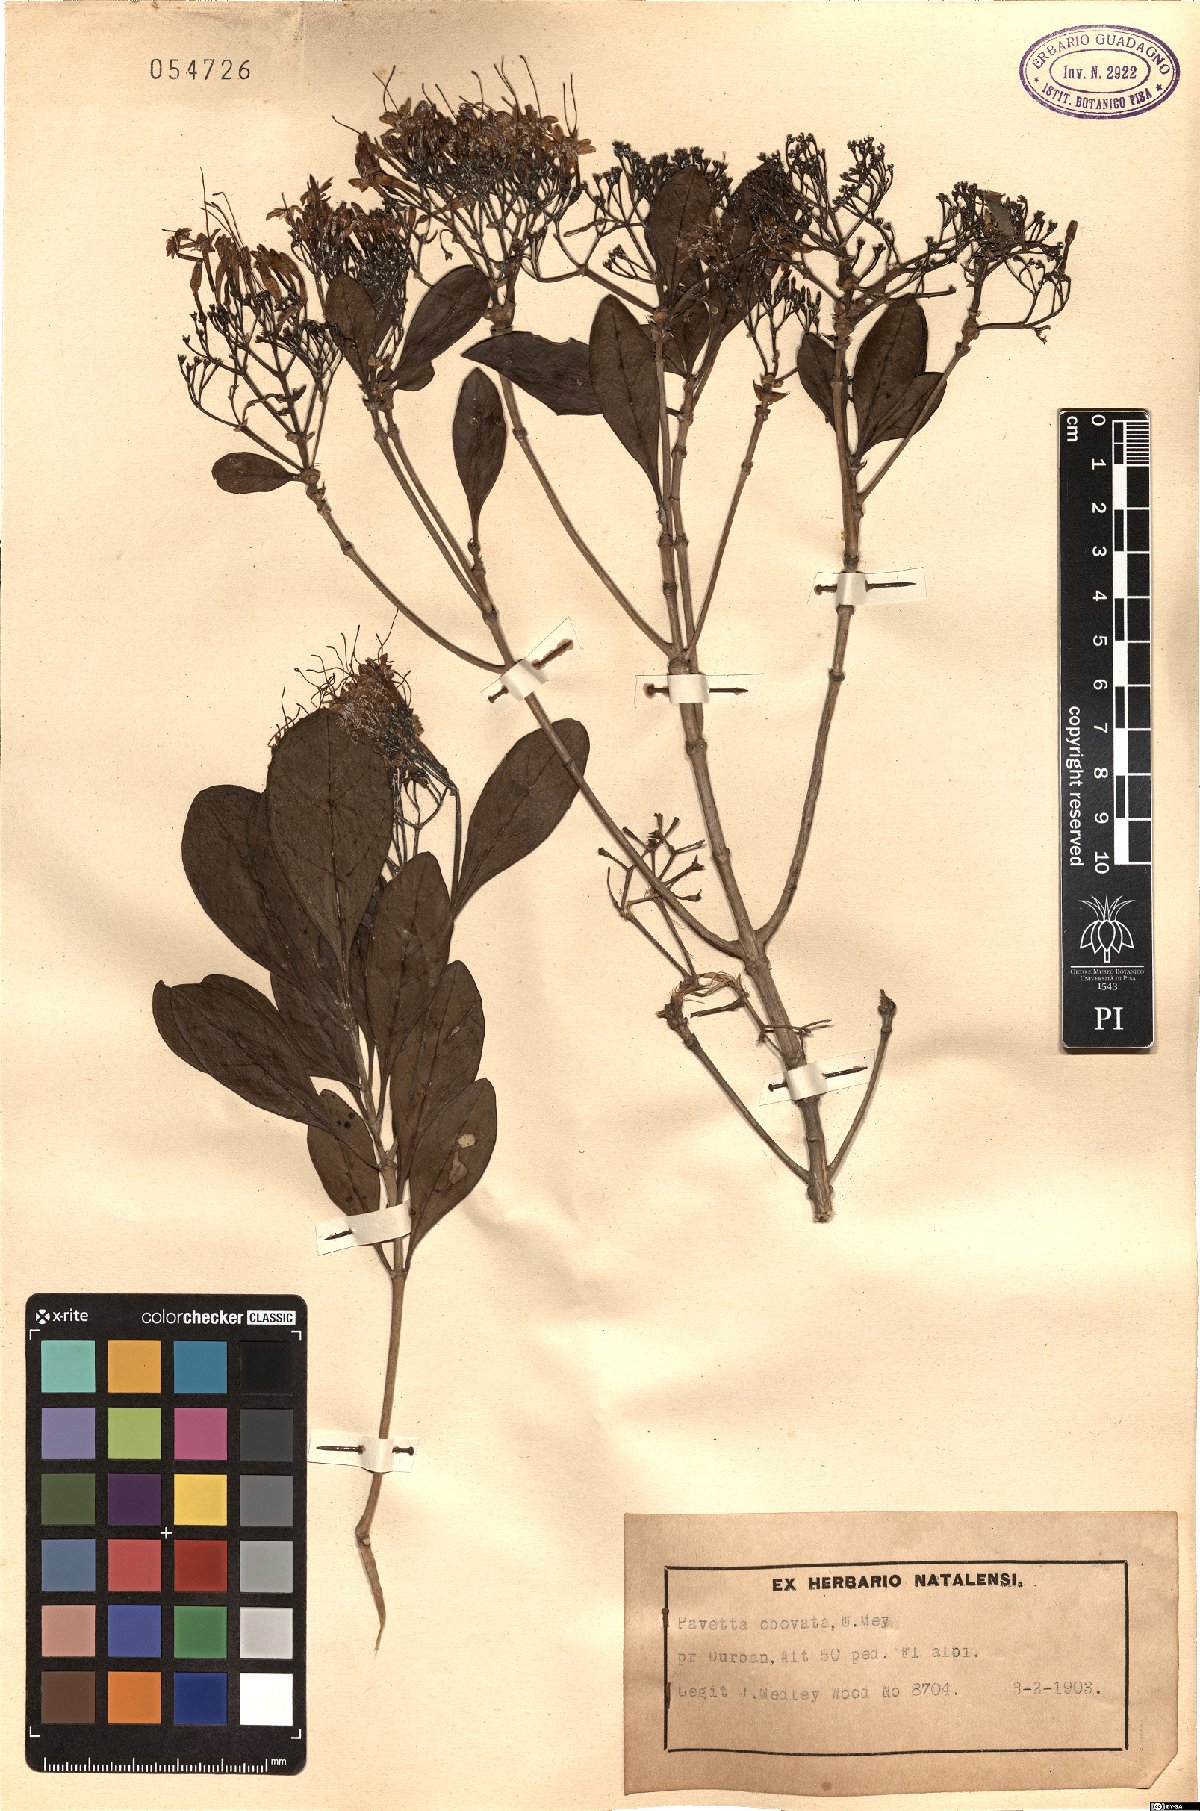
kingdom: Plantae
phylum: Tracheophyta
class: Magnoliopsida
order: Gentianales
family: Rubiaceae
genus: Pavetta
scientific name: Pavetta revoluta
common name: Dune brides-bush
